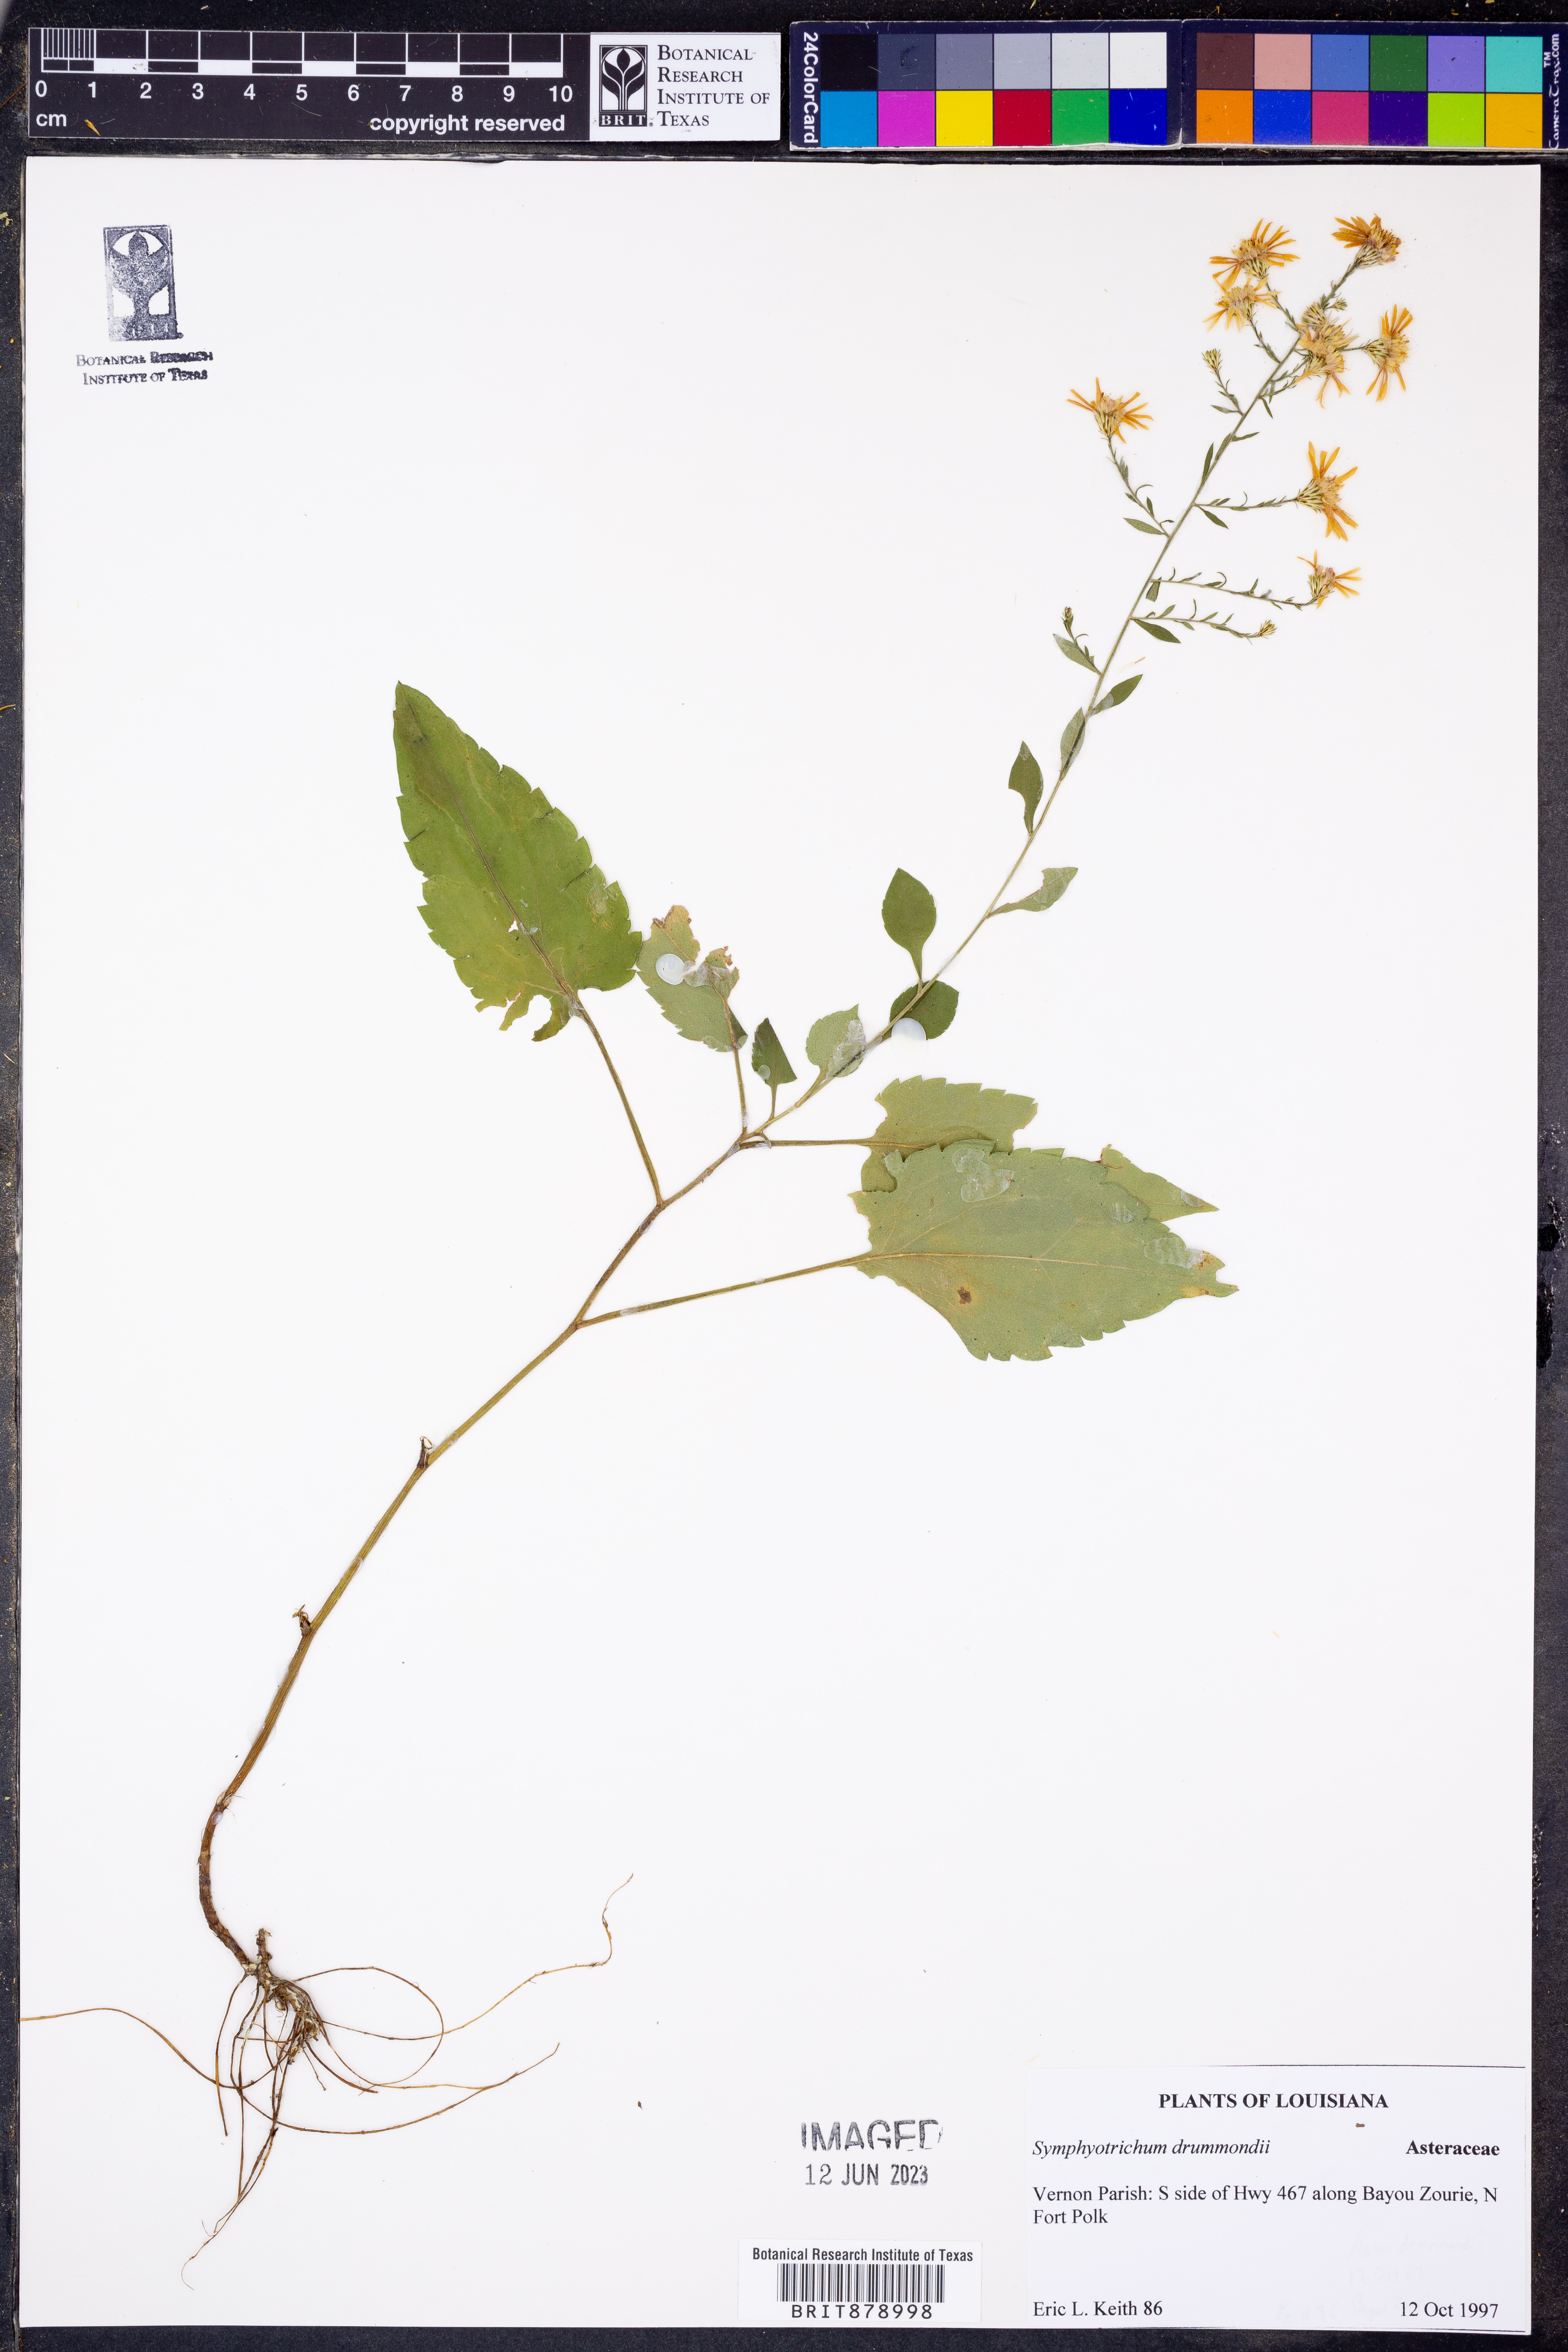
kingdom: Plantae
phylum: Tracheophyta
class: Magnoliopsida
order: Asterales
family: Asteraceae
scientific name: Asteraceae
